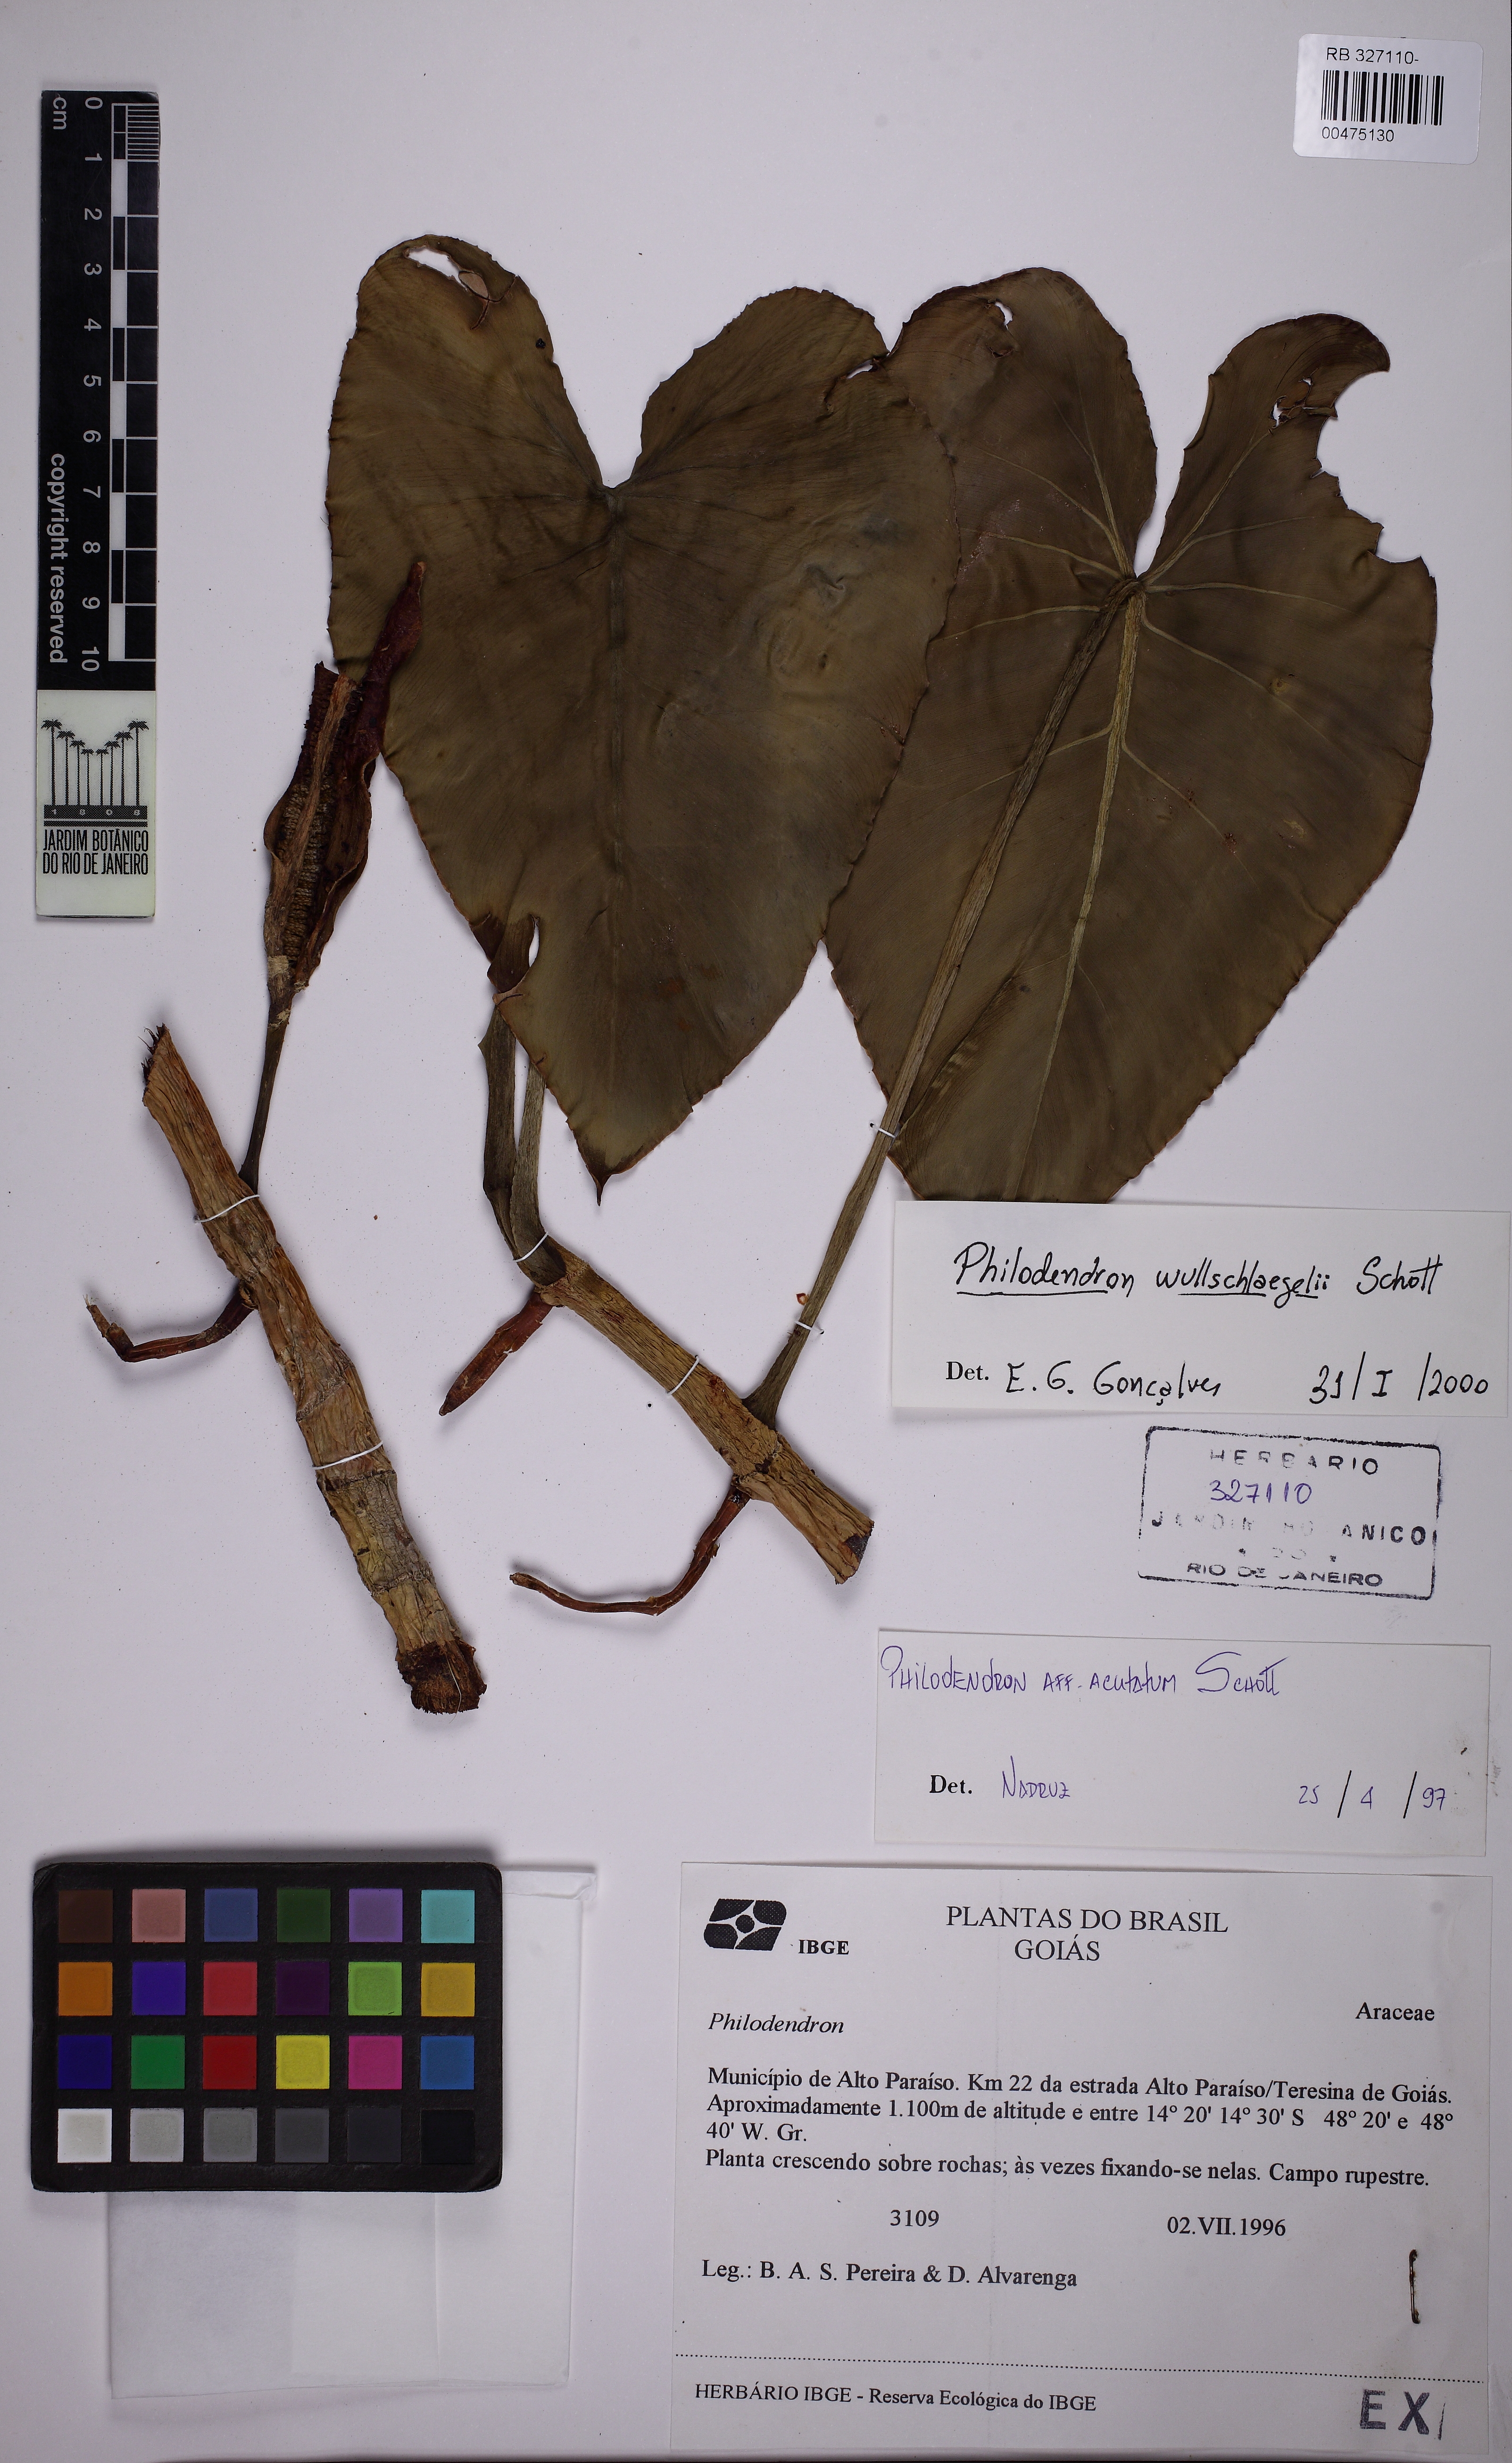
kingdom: Plantae
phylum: Tracheophyta
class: Liliopsida
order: Alismatales
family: Araceae
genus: Philodendron
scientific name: Philodendron wullschlaegelii
